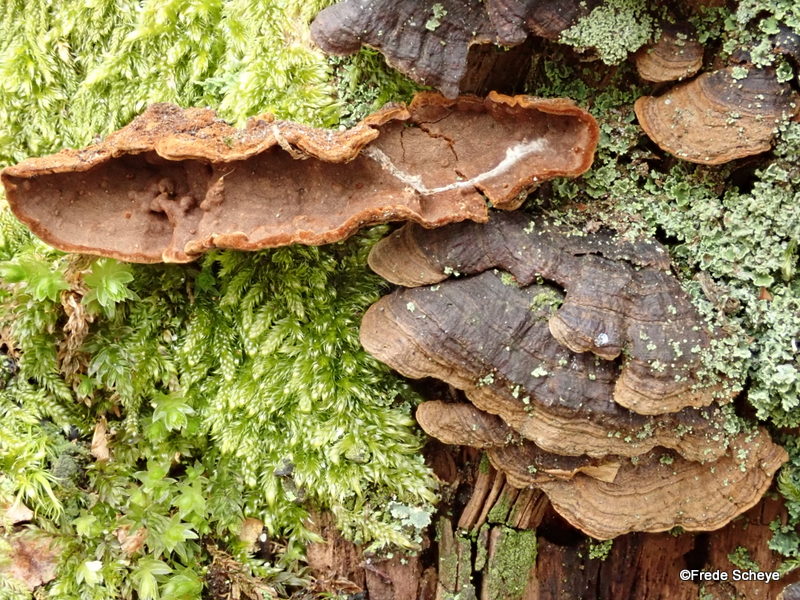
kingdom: Fungi
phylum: Basidiomycota
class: Agaricomycetes
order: Hymenochaetales
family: Hymenochaetaceae
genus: Hymenochaete
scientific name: Hymenochaete rubiginosa
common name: stiv ruslædersvamp
